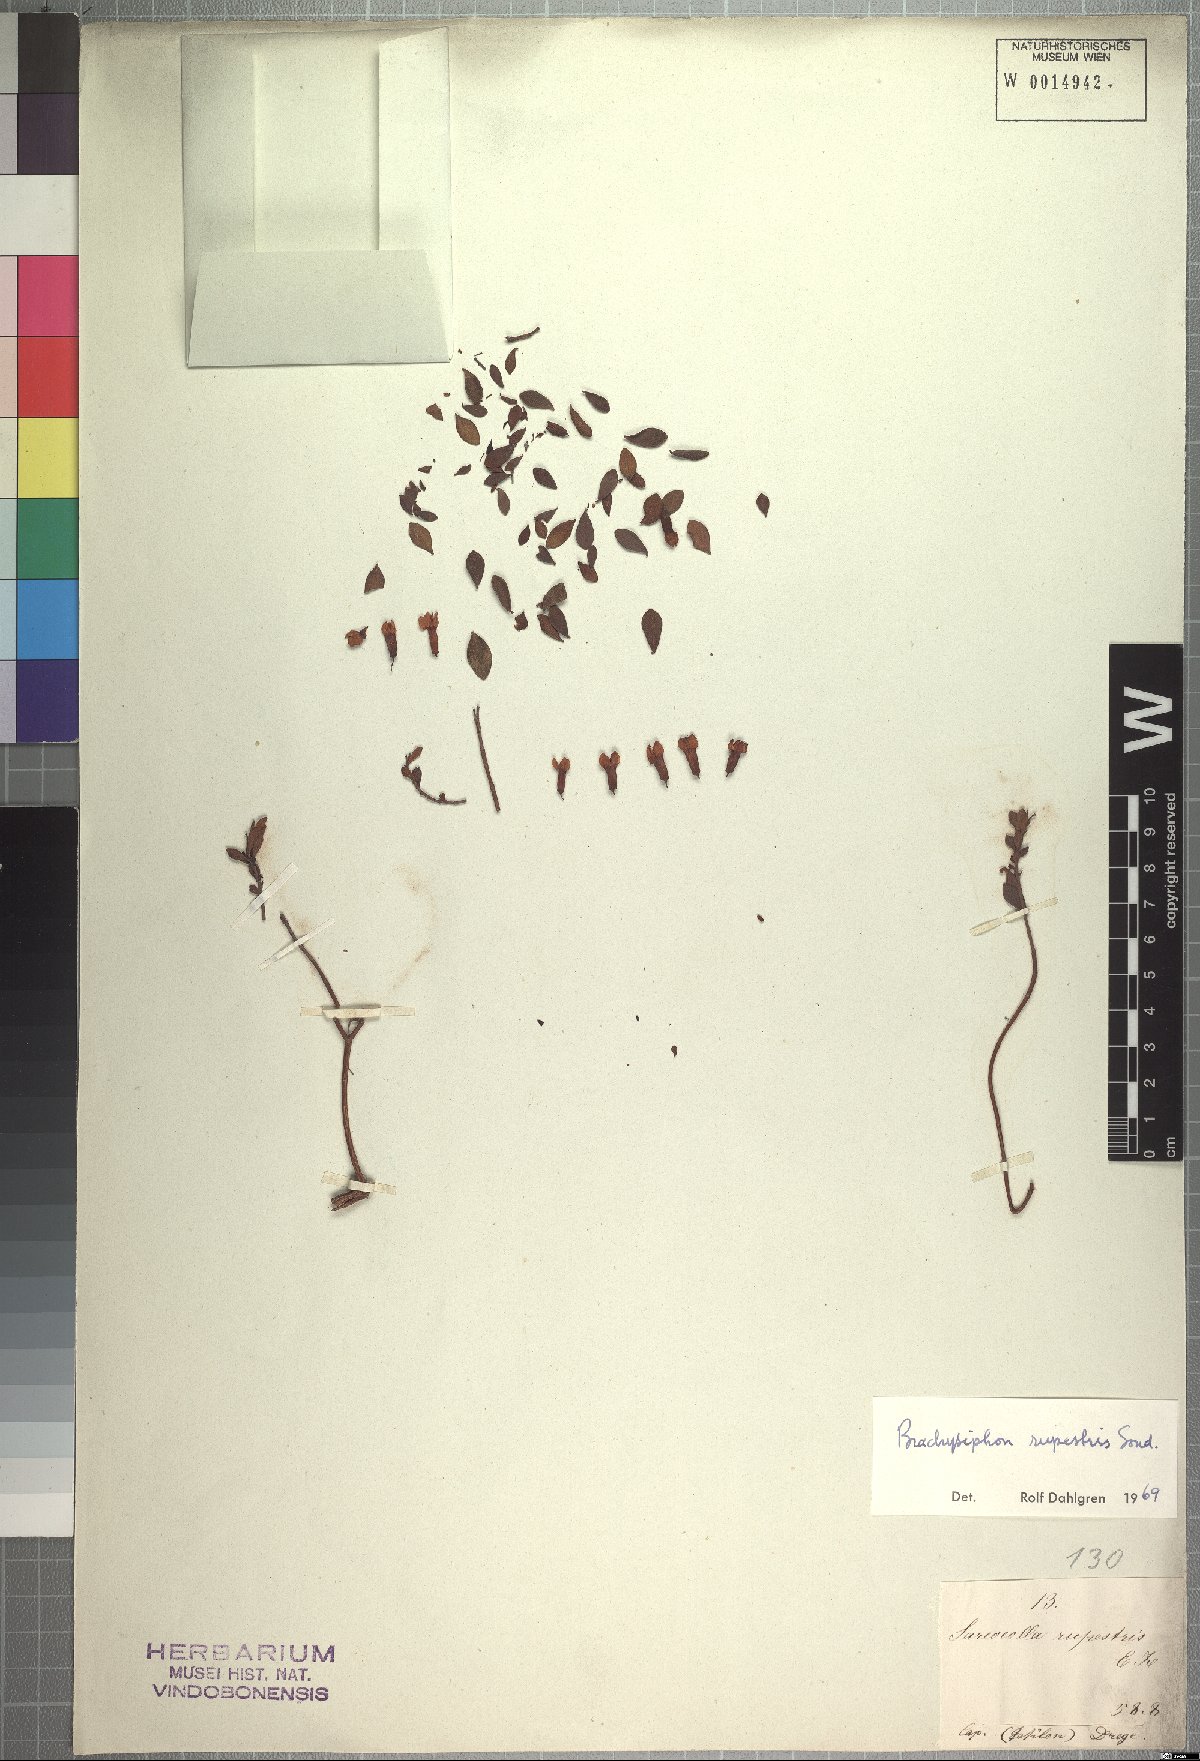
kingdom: Plantae
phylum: Tracheophyta
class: Magnoliopsida
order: Myrtales
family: Penaeaceae
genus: Brachysiphon
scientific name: Brachysiphon rupestris
